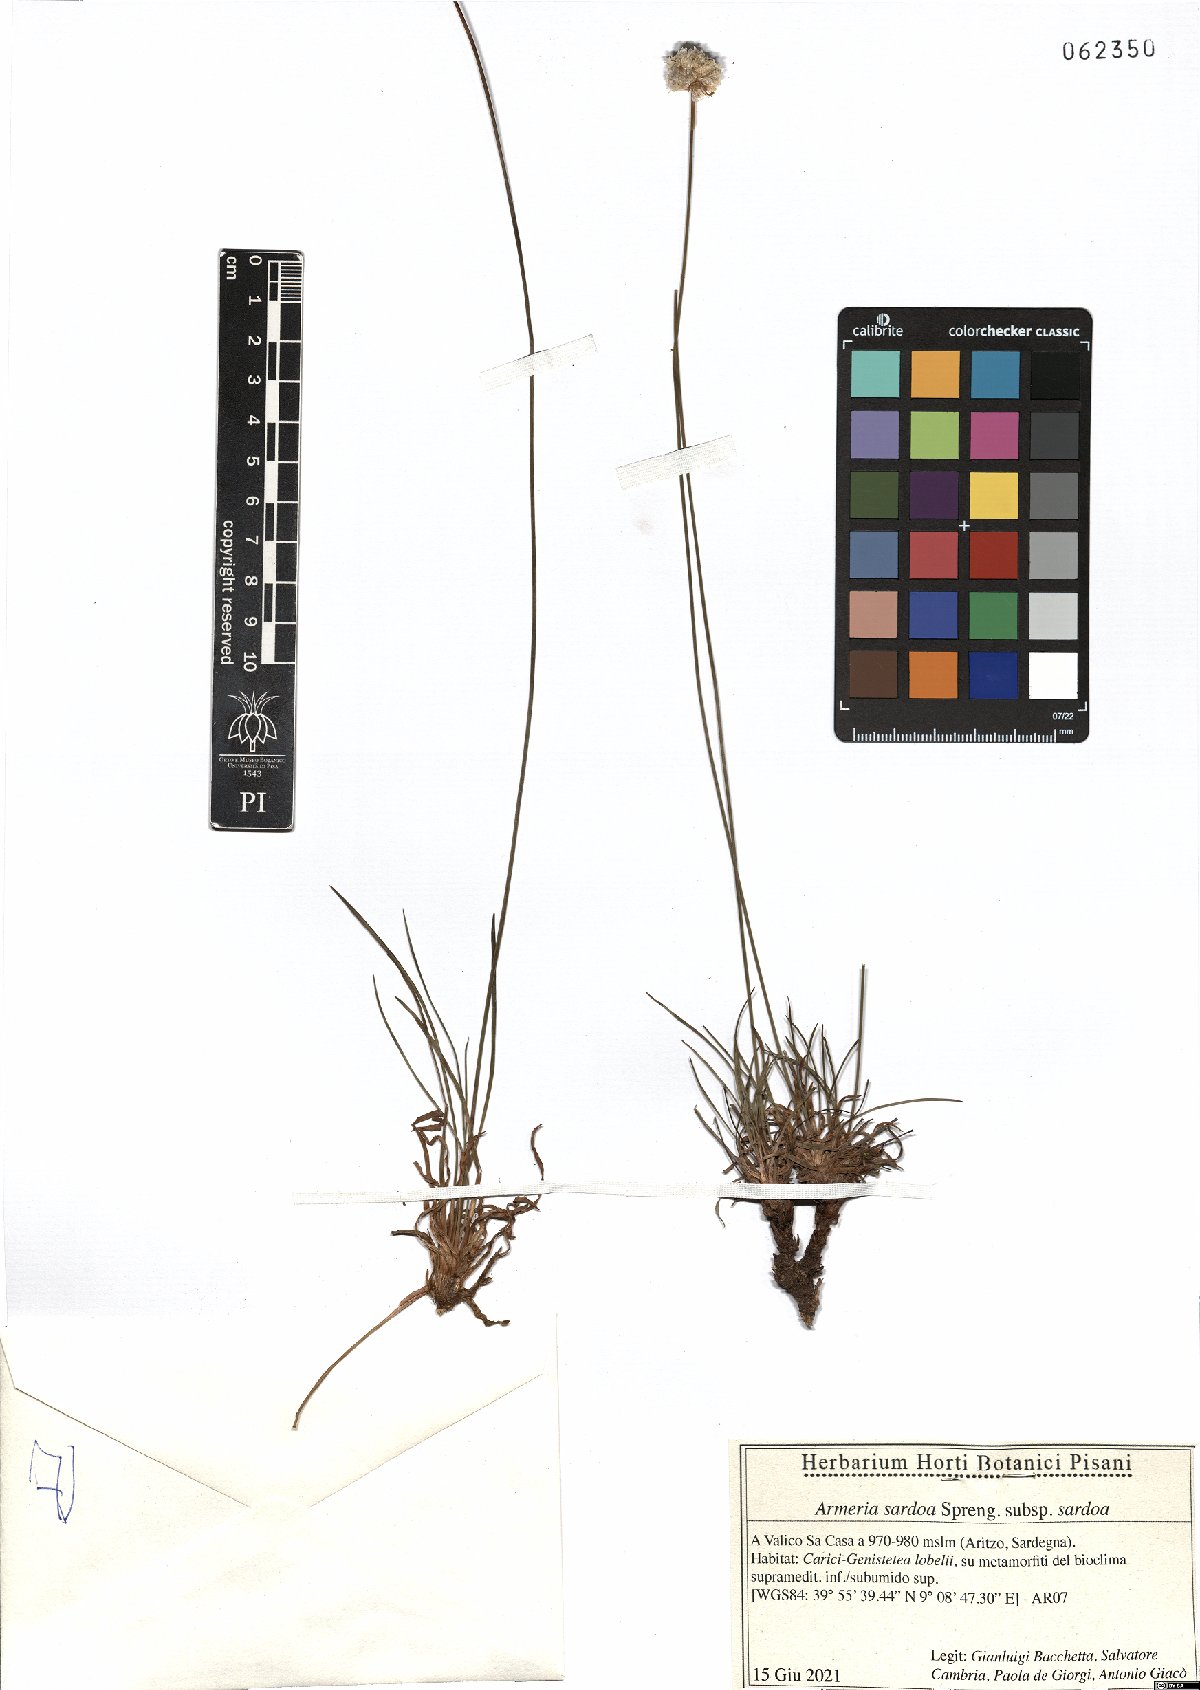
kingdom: Plantae
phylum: Tracheophyta
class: Magnoliopsida
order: Caryophyllales
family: Plumbaginaceae
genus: Armeria
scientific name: Armeria sardoa
